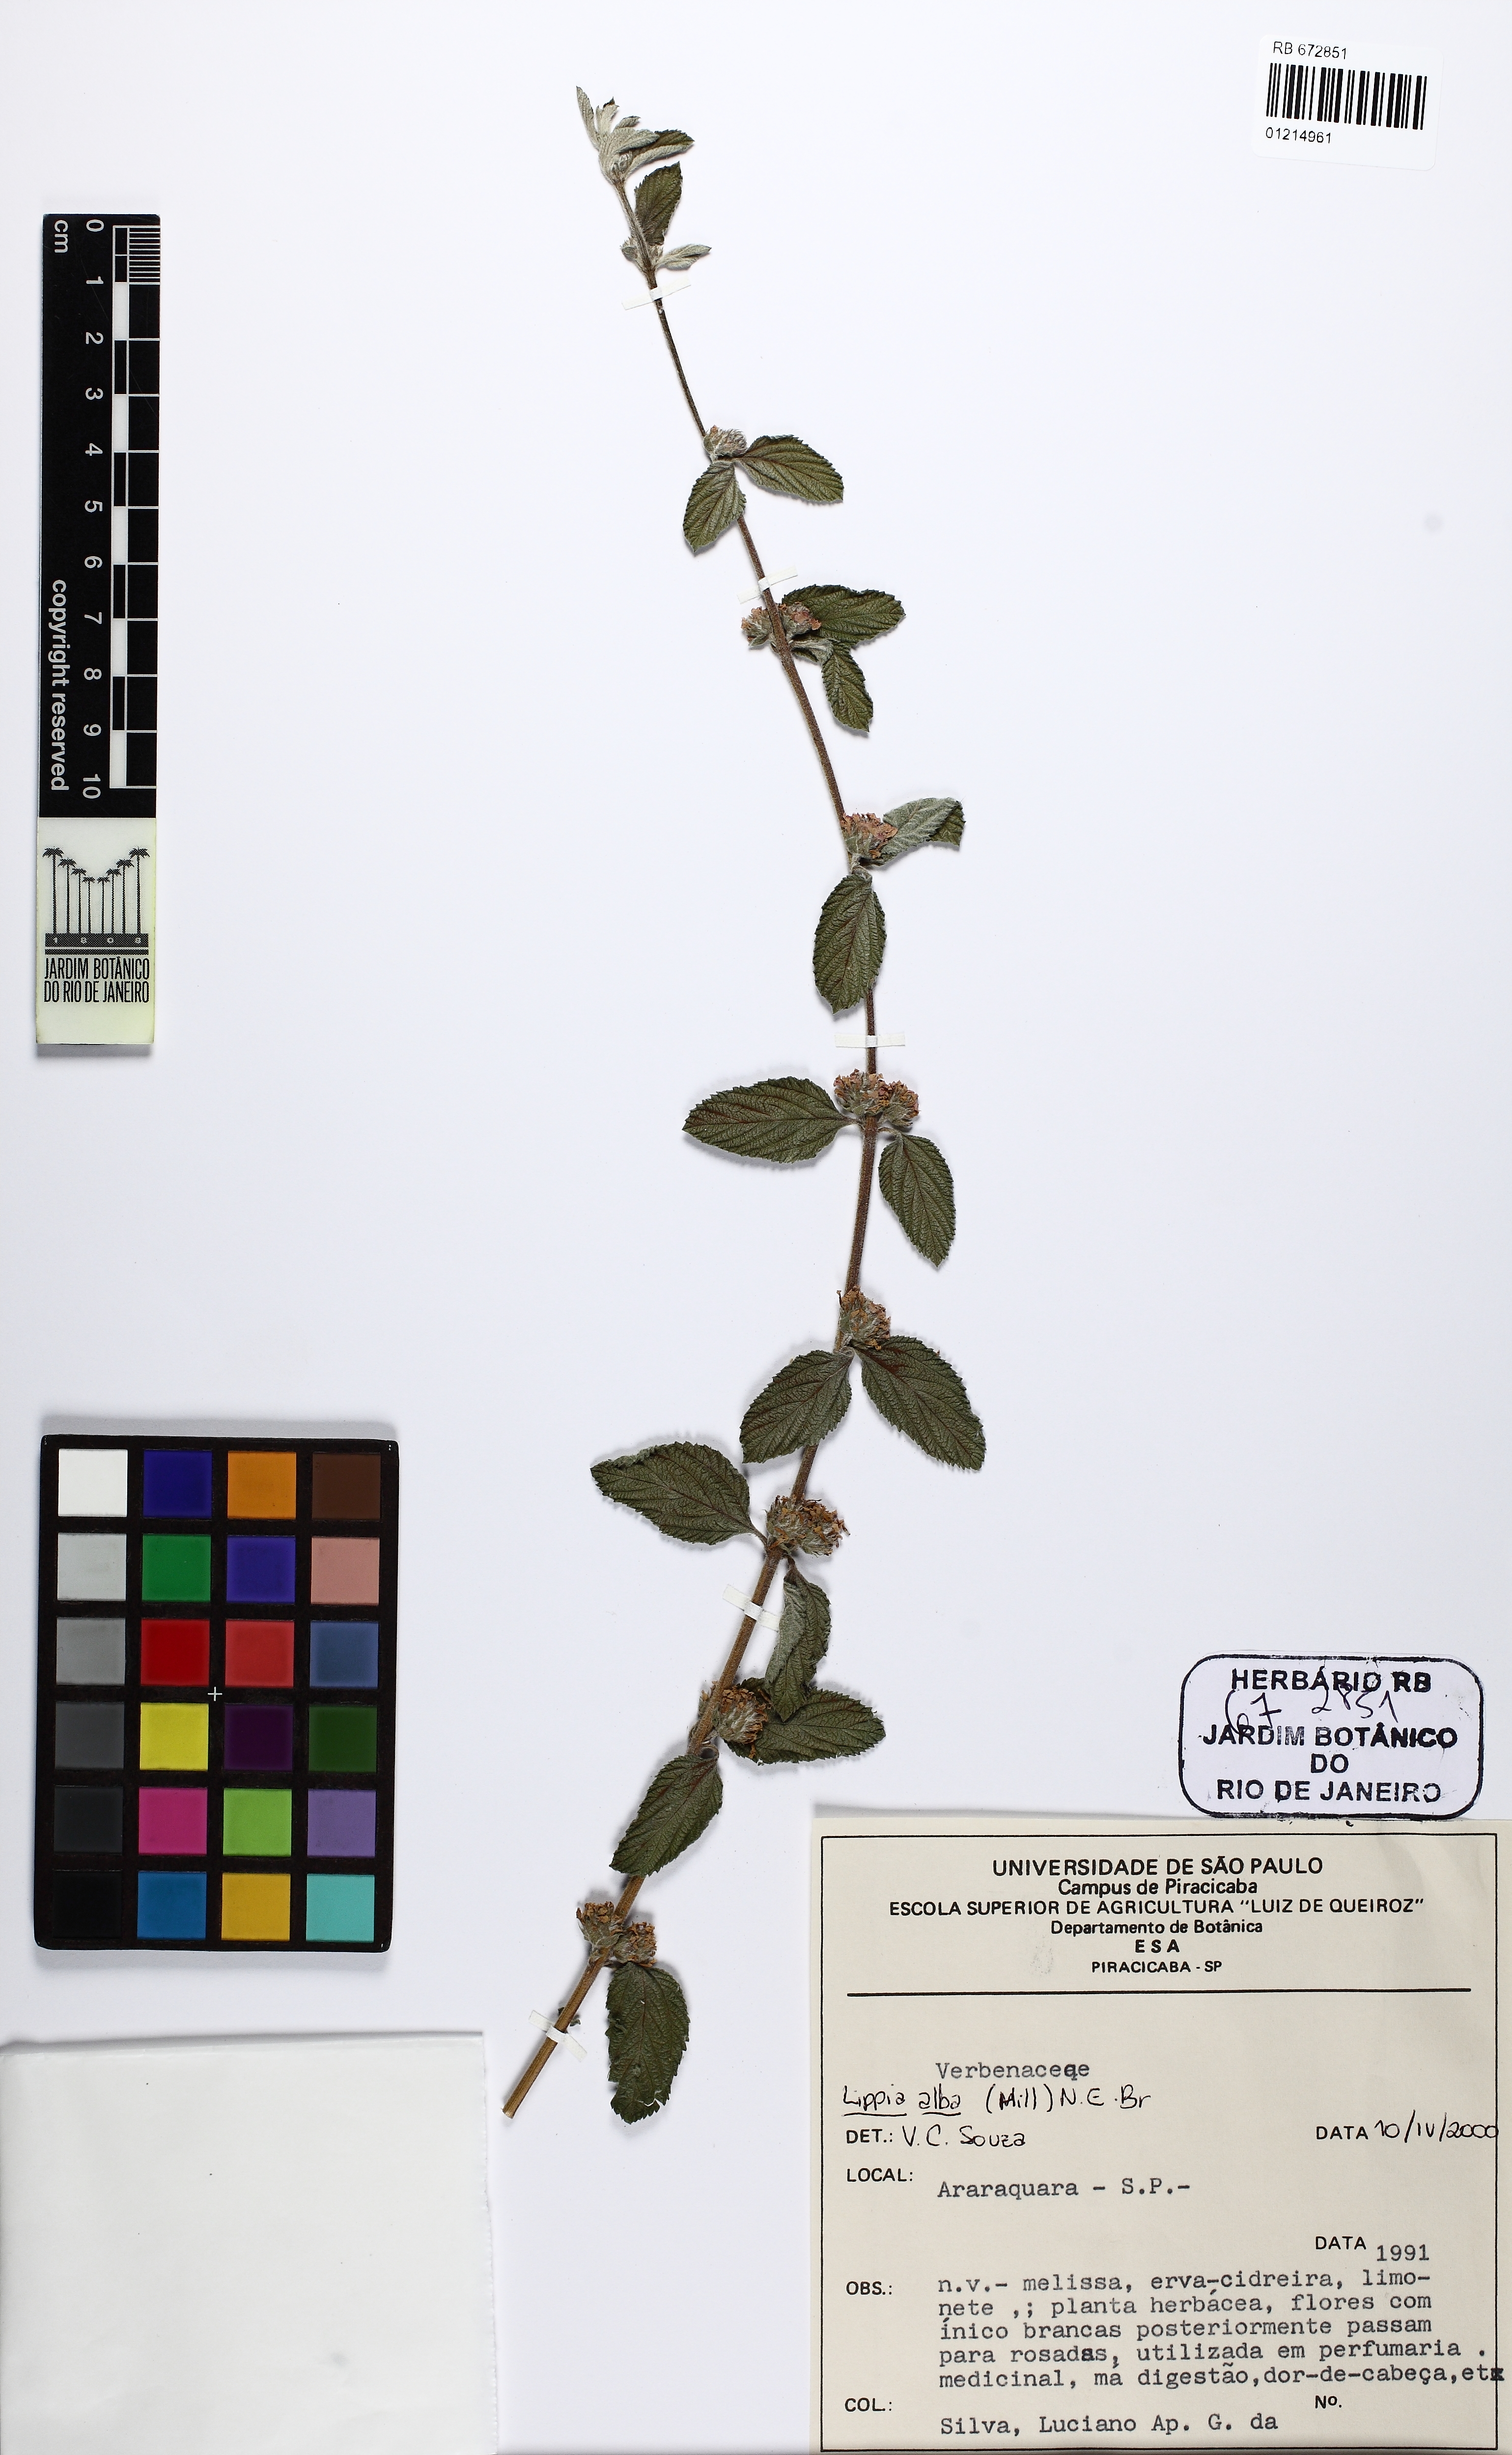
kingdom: Plantae
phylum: Tracheophyta
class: Magnoliopsida
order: Lamiales
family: Verbenaceae
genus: Lippia
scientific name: Lippia alba
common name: Bushy matgrass
